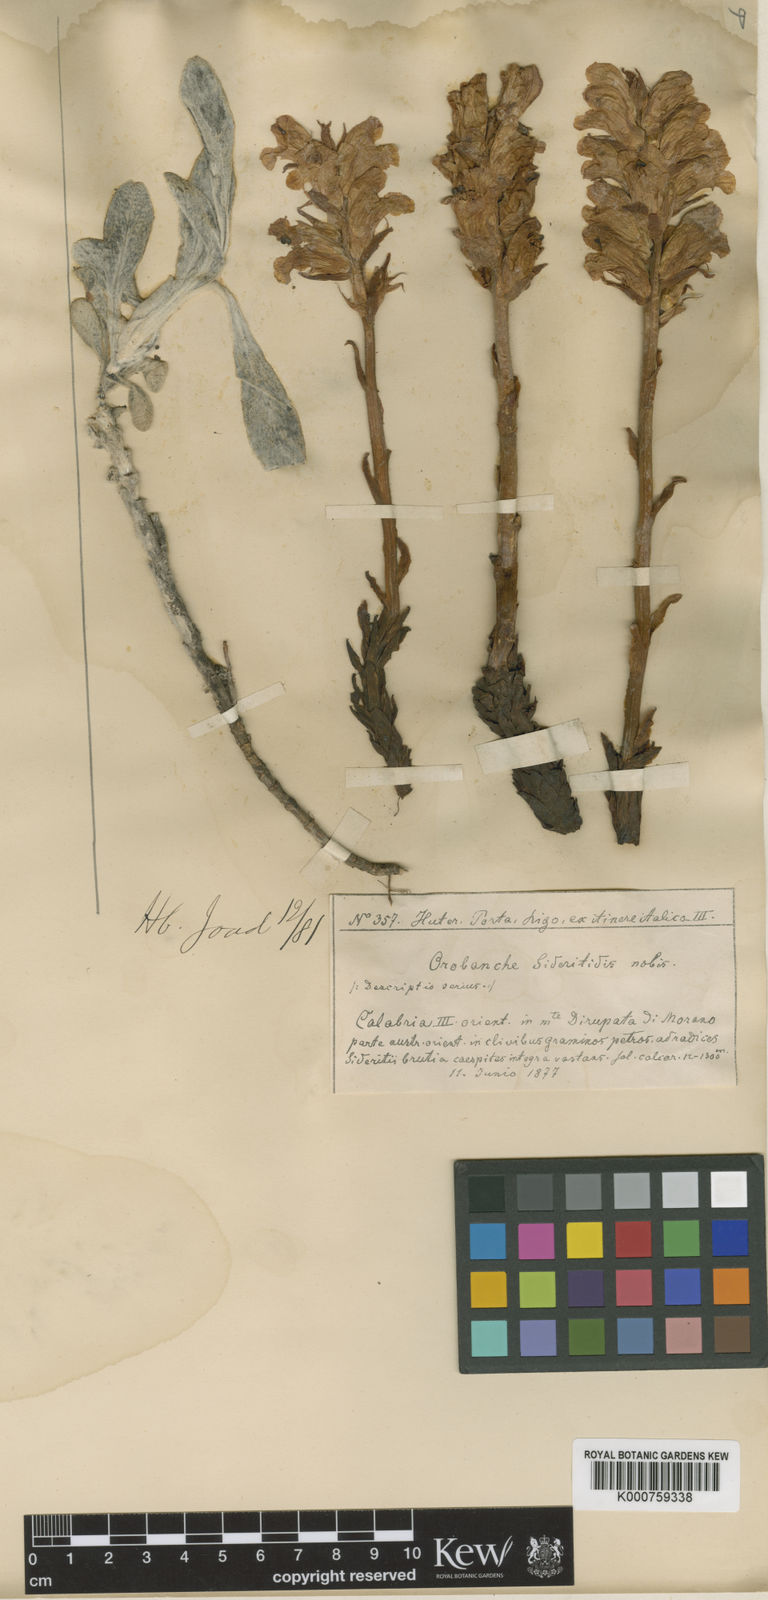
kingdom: Plantae
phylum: Tracheophyta
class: Magnoliopsida
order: Lamiales
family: Orobanchaceae
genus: Orobanche
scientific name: Orobanche caryophyllacea
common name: Bedstraw broomrape
